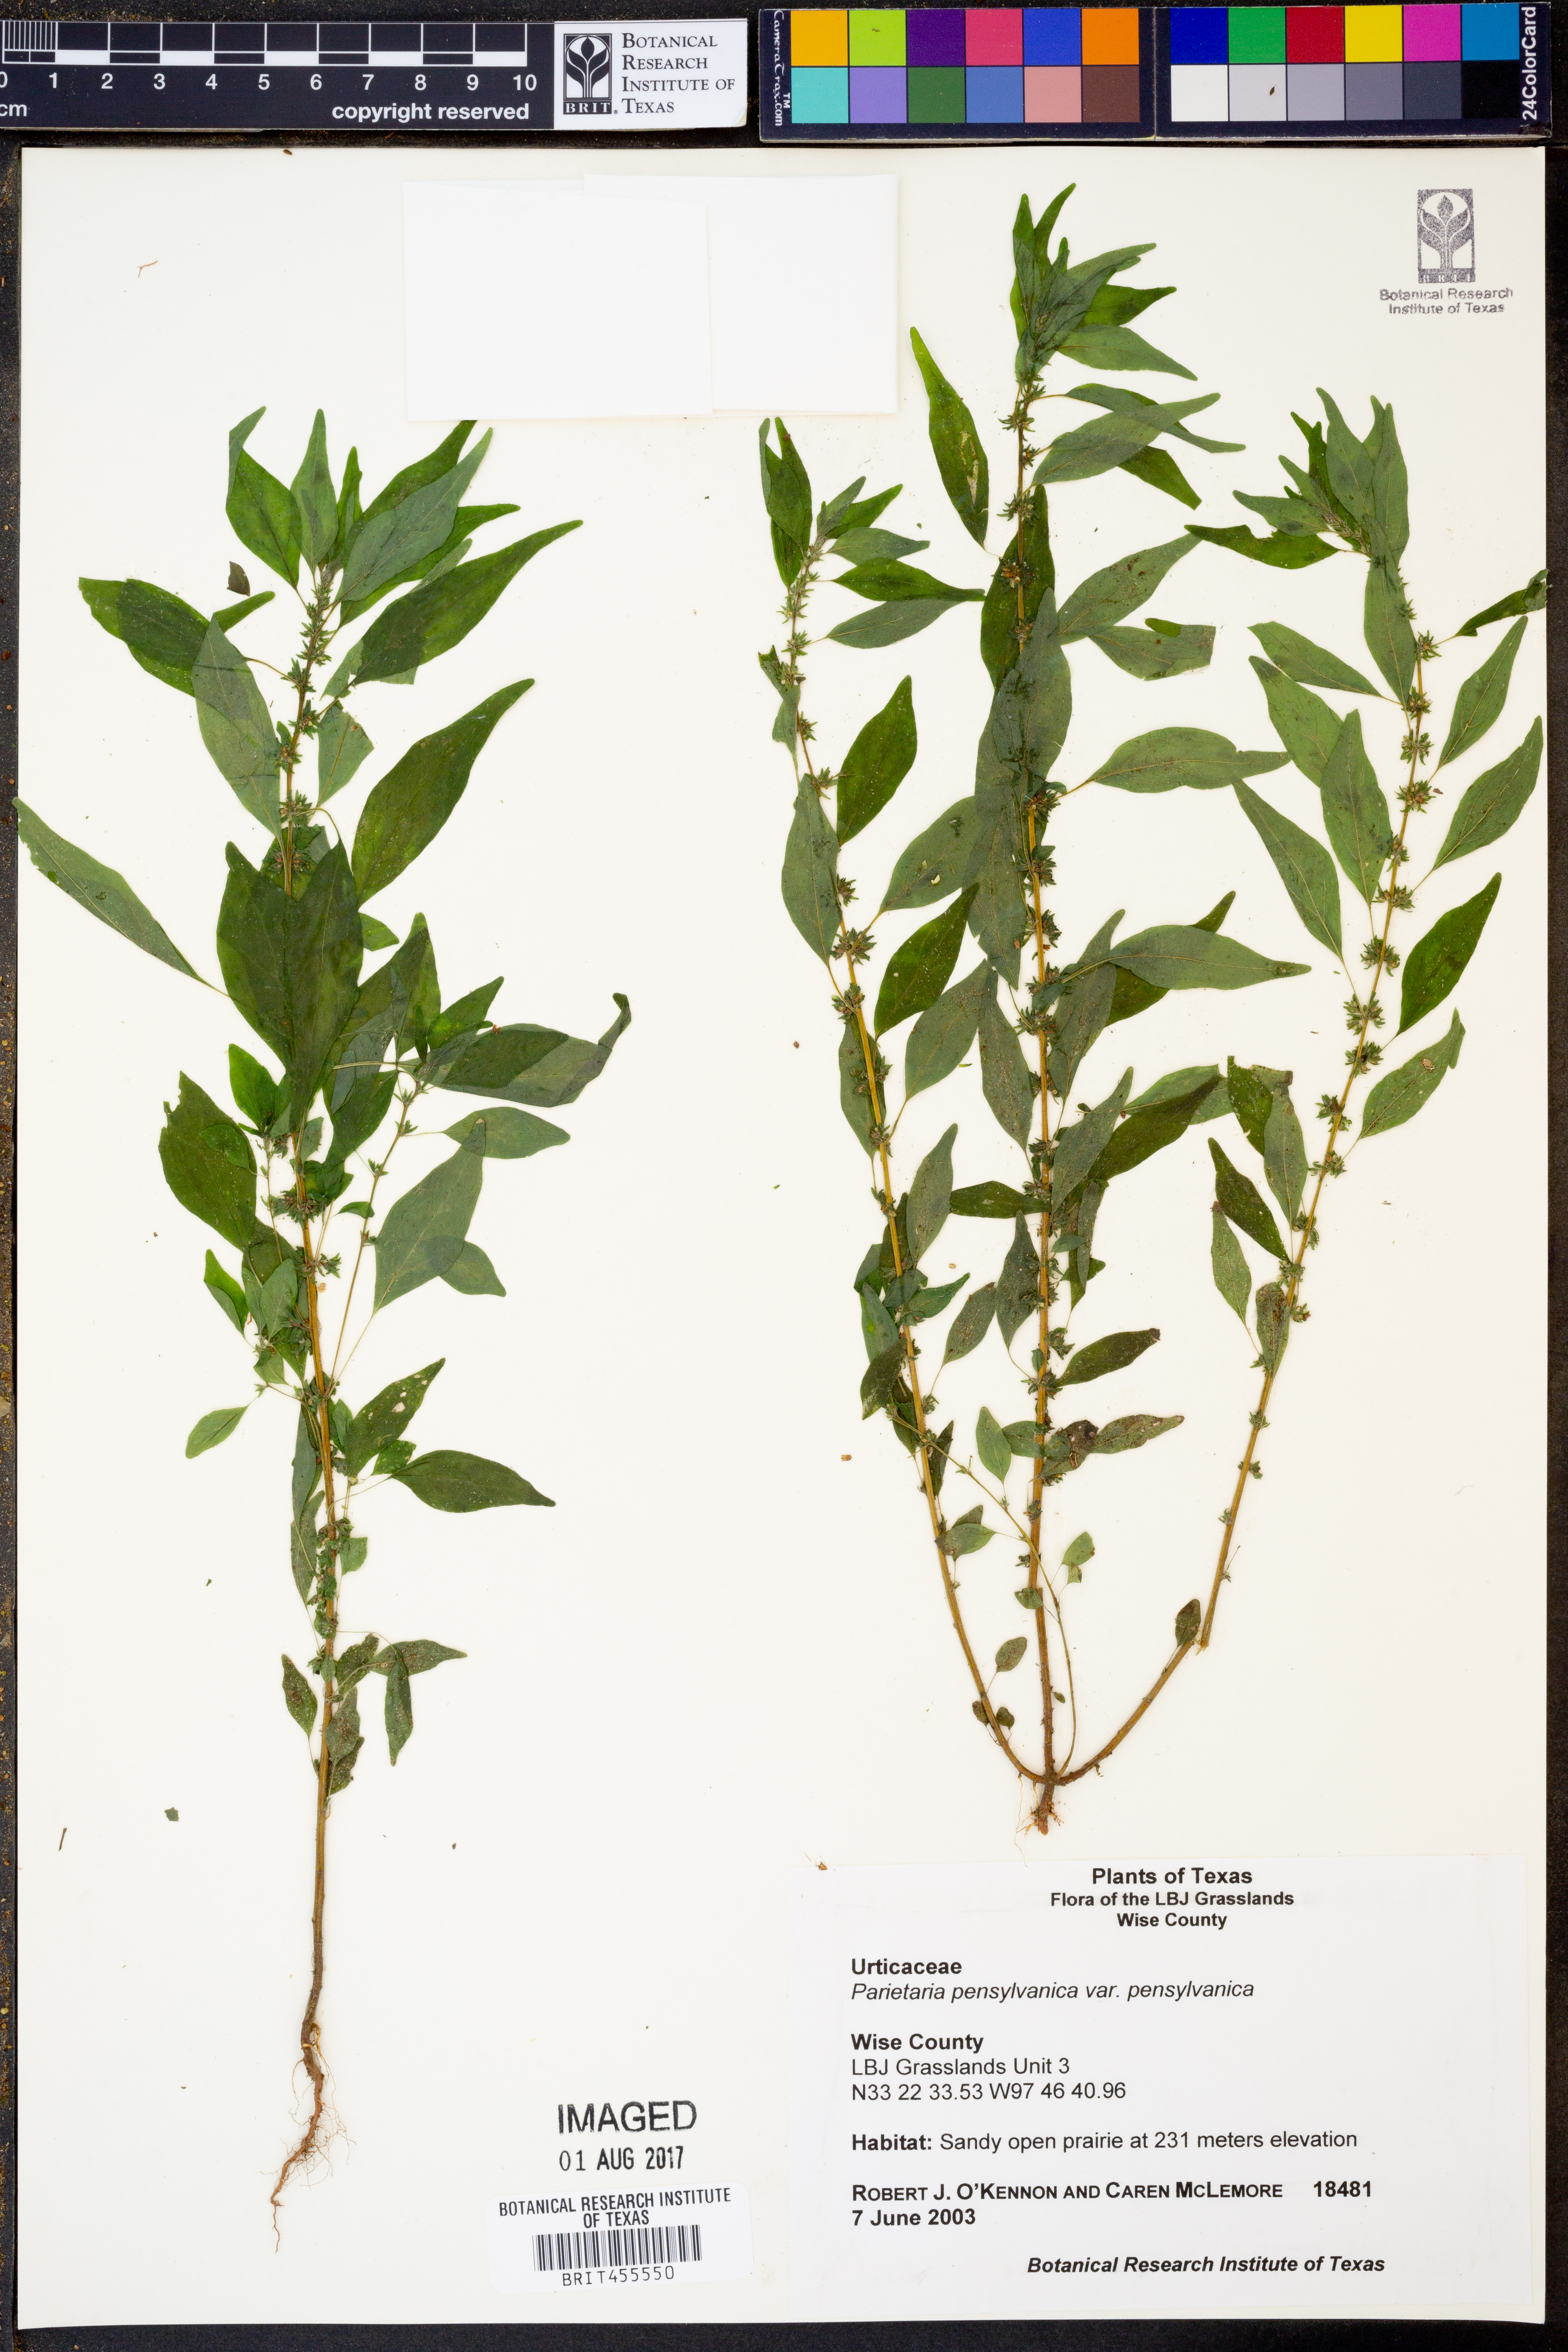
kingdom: Plantae
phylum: Tracheophyta
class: Magnoliopsida
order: Rosales
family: Urticaceae
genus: Parietaria
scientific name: Parietaria pensylvanica
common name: Pennsylvania pellitory
